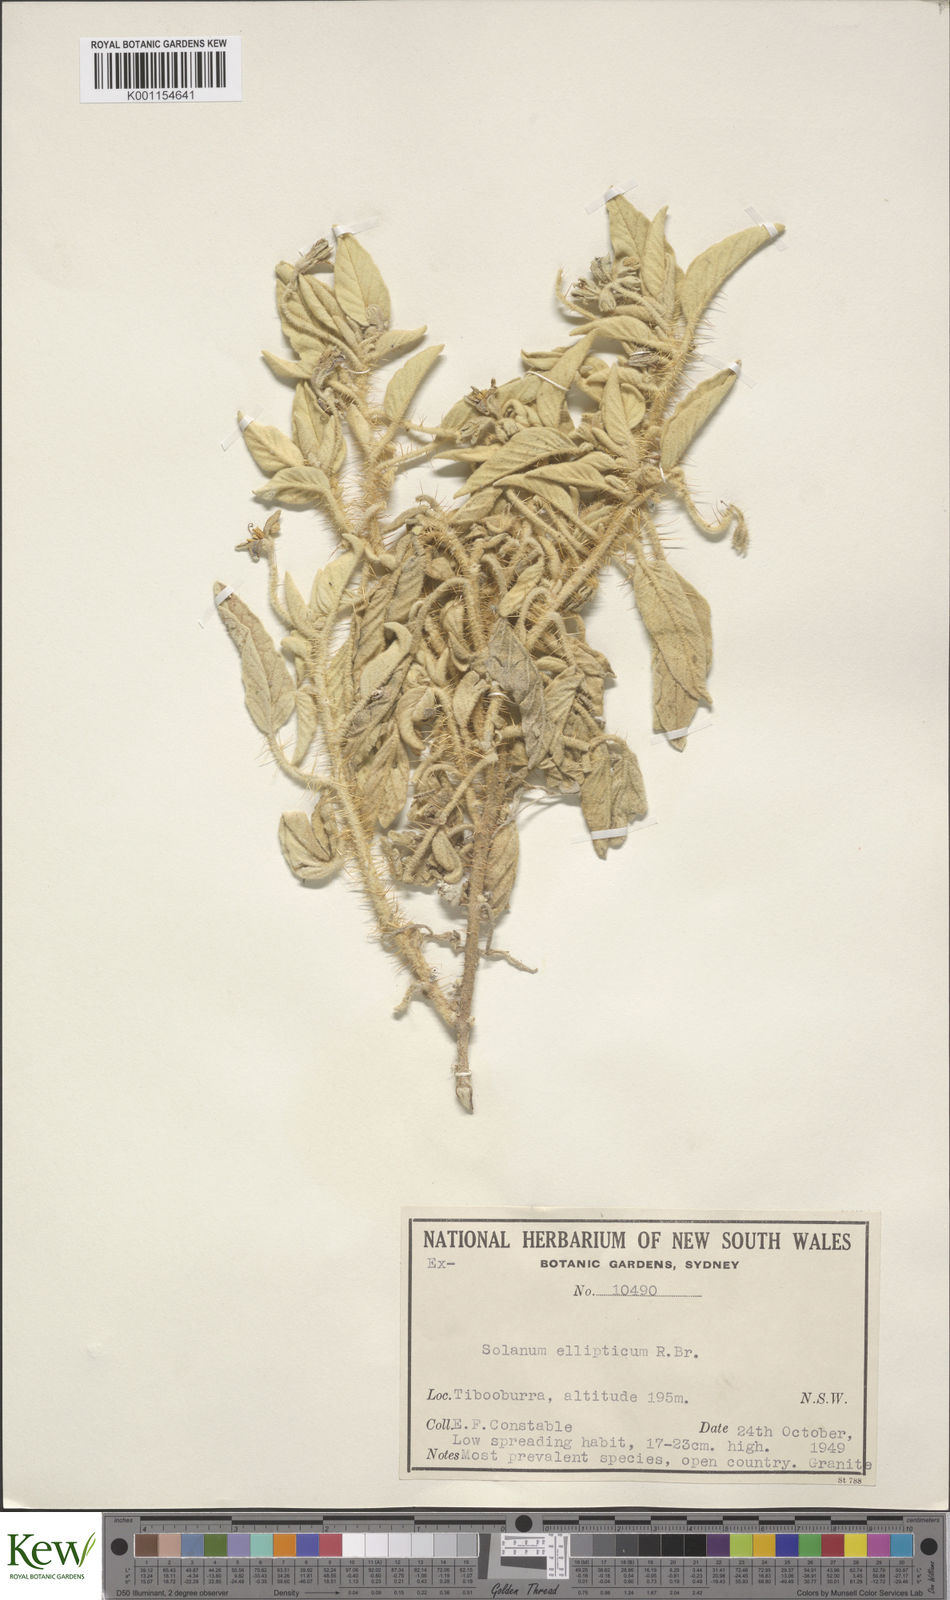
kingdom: Plantae
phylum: Tracheophyta
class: Magnoliopsida
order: Solanales
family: Solanaceae
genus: Solanum
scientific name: Solanum ellipticum
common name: Potato-bush
